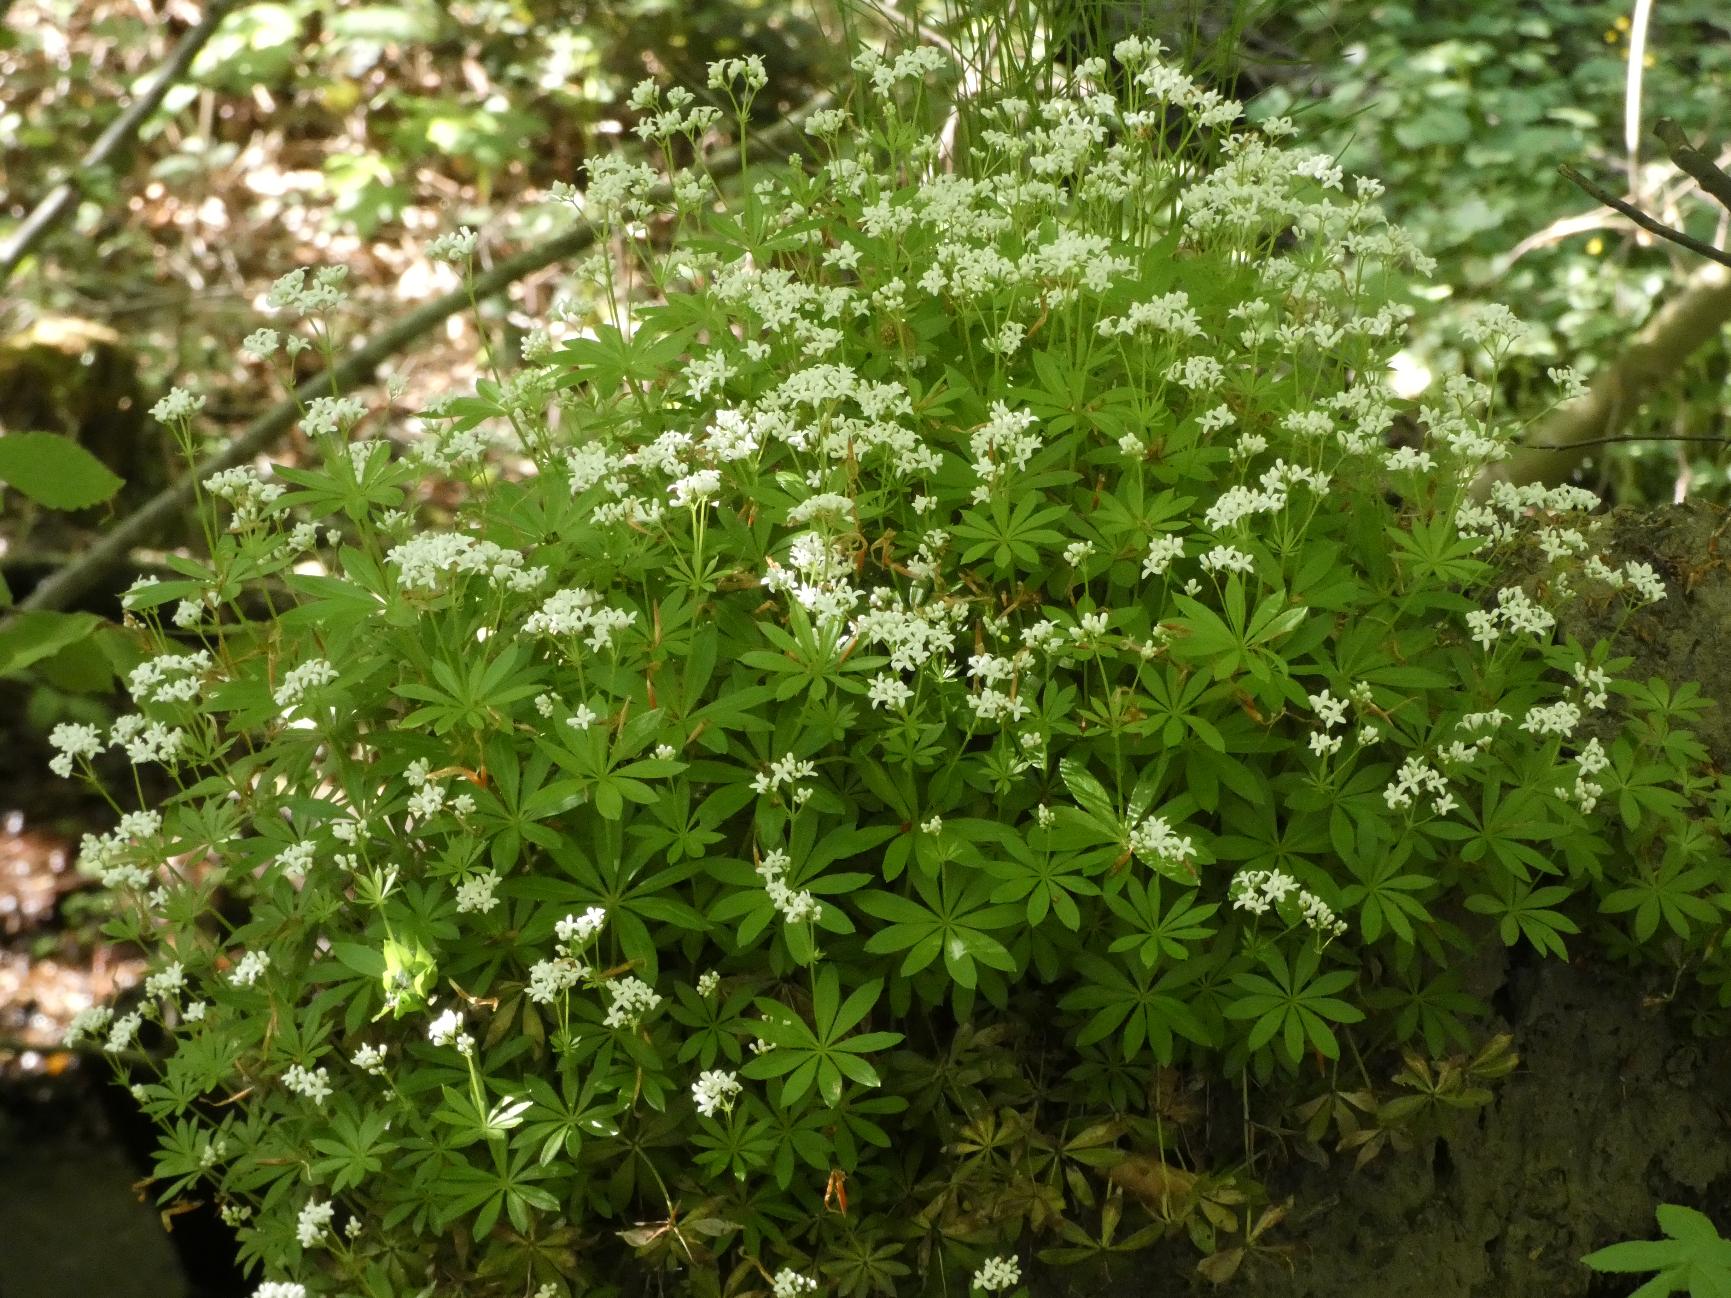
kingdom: Plantae
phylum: Tracheophyta
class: Magnoliopsida
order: Gentianales
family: Rubiaceae
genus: Galium
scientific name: Galium odoratum
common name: Skovmærke
